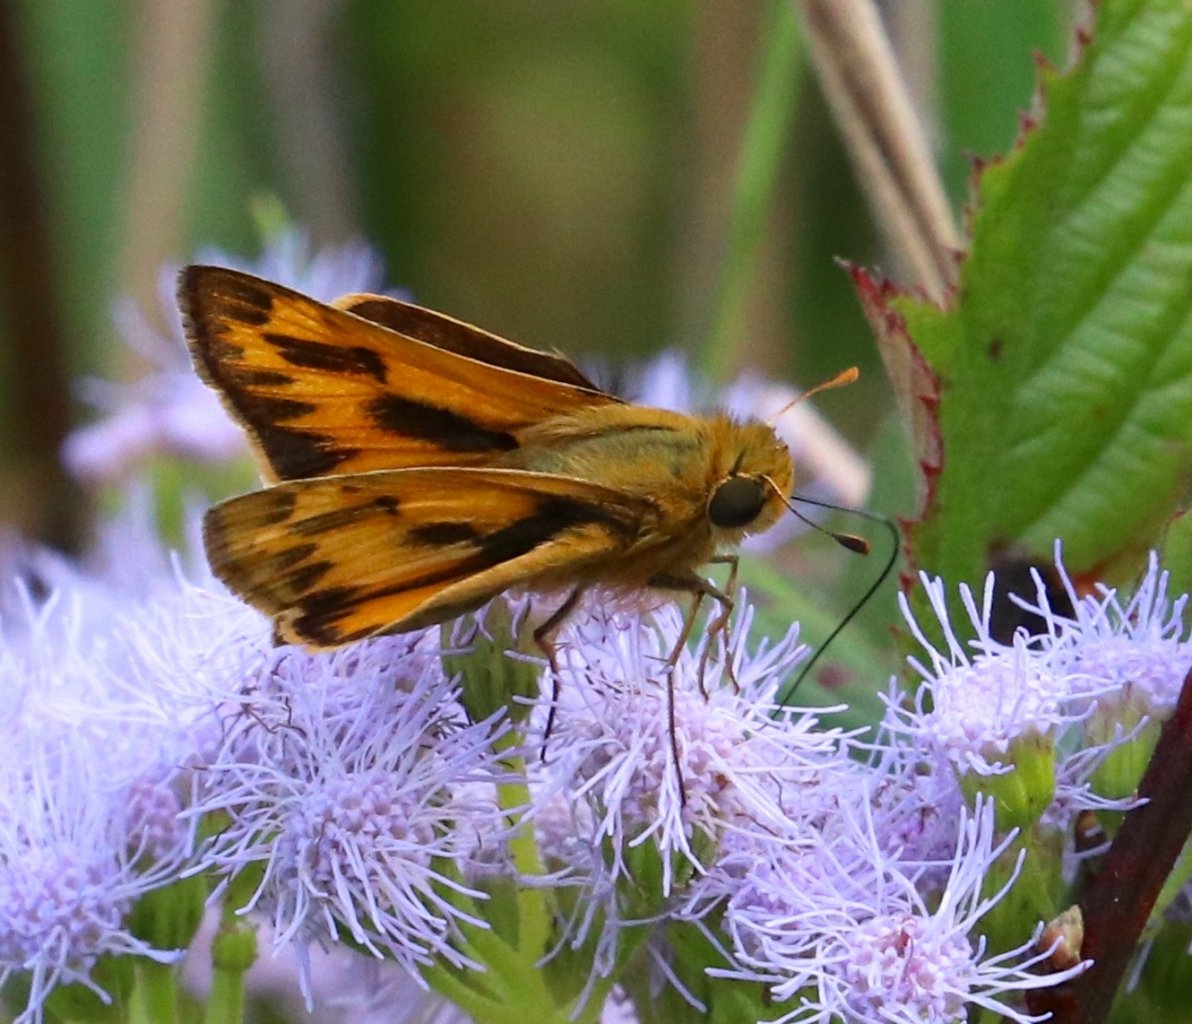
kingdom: Animalia
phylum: Arthropoda
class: Insecta
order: Lepidoptera
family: Hesperiidae
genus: Hylephila
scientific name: Hylephila phyleus
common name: Fiery Skipper
